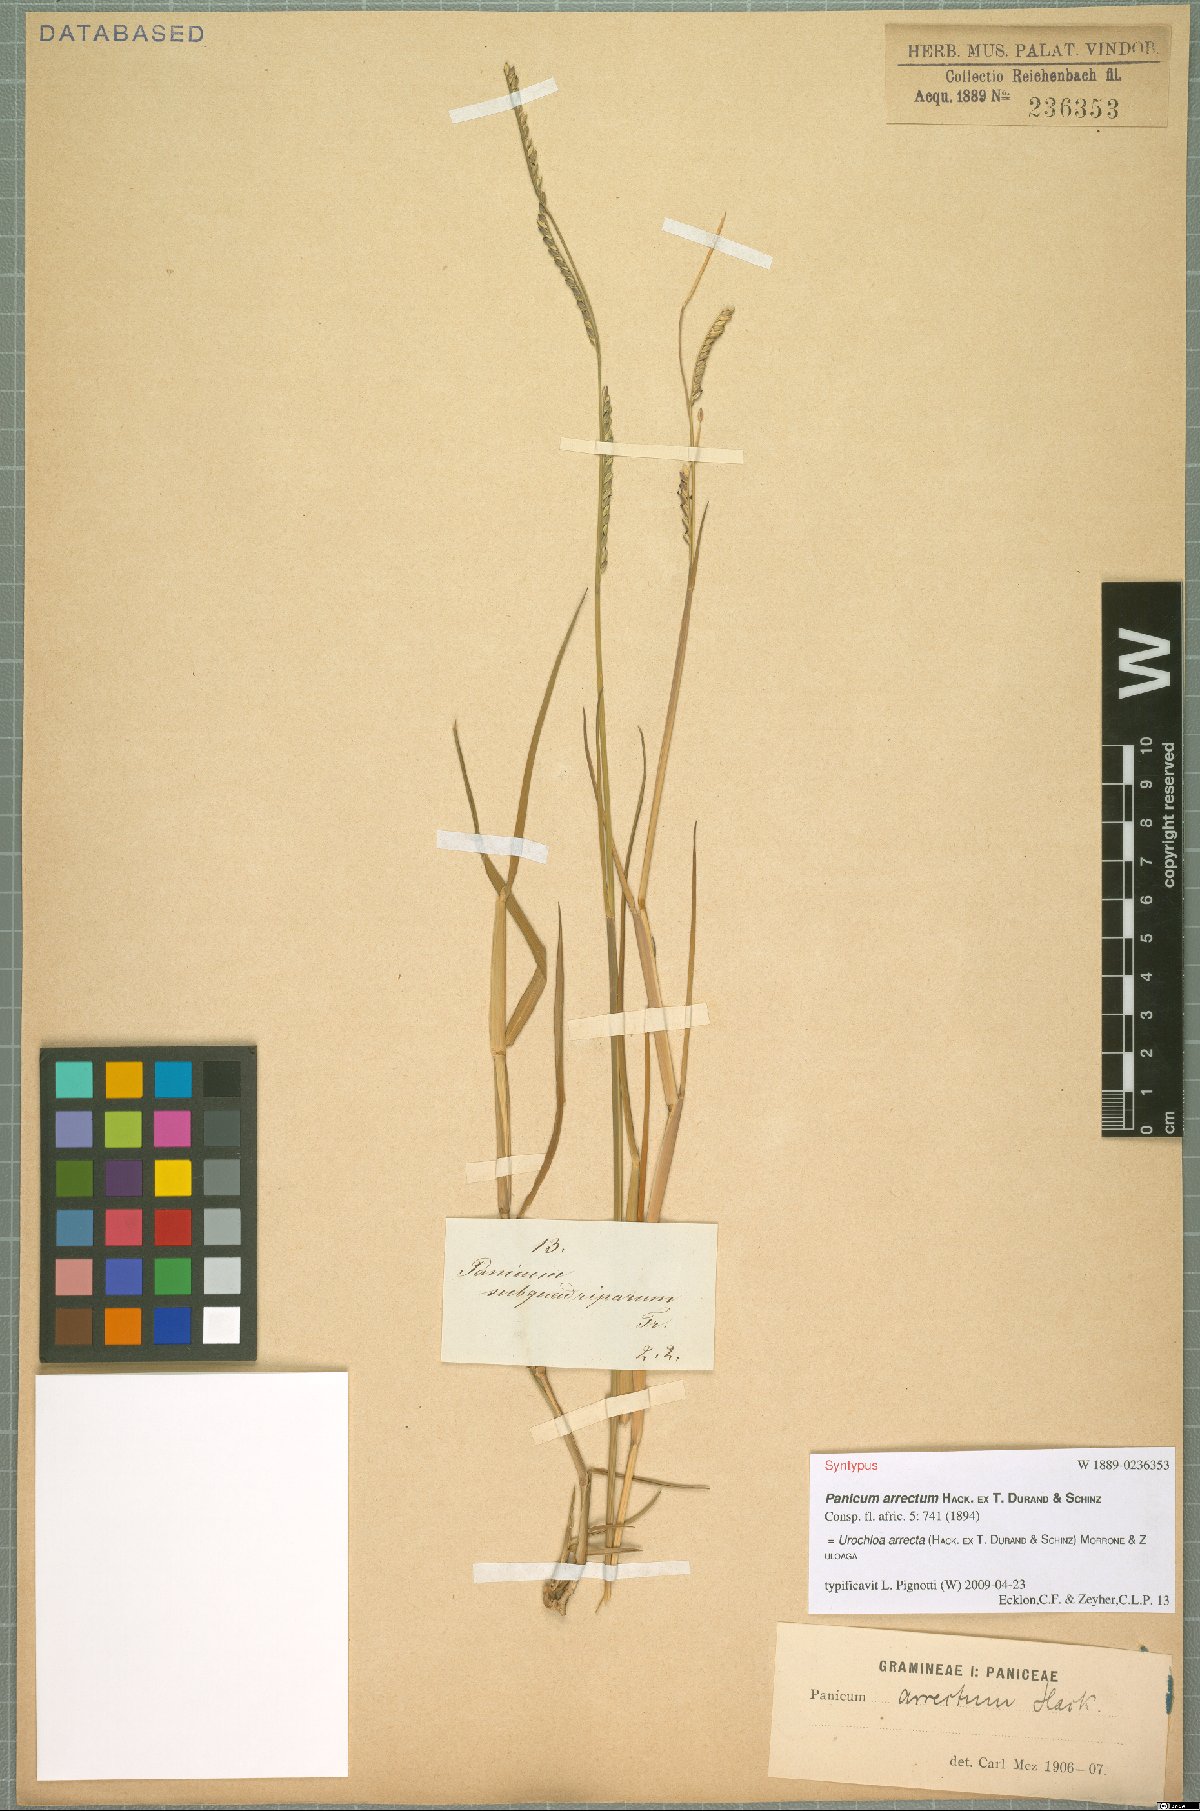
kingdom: Plantae
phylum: Tracheophyta
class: Liliopsida
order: Poales
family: Poaceae
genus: Urochloa
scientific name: Urochloa arrecta
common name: African signalgrass
